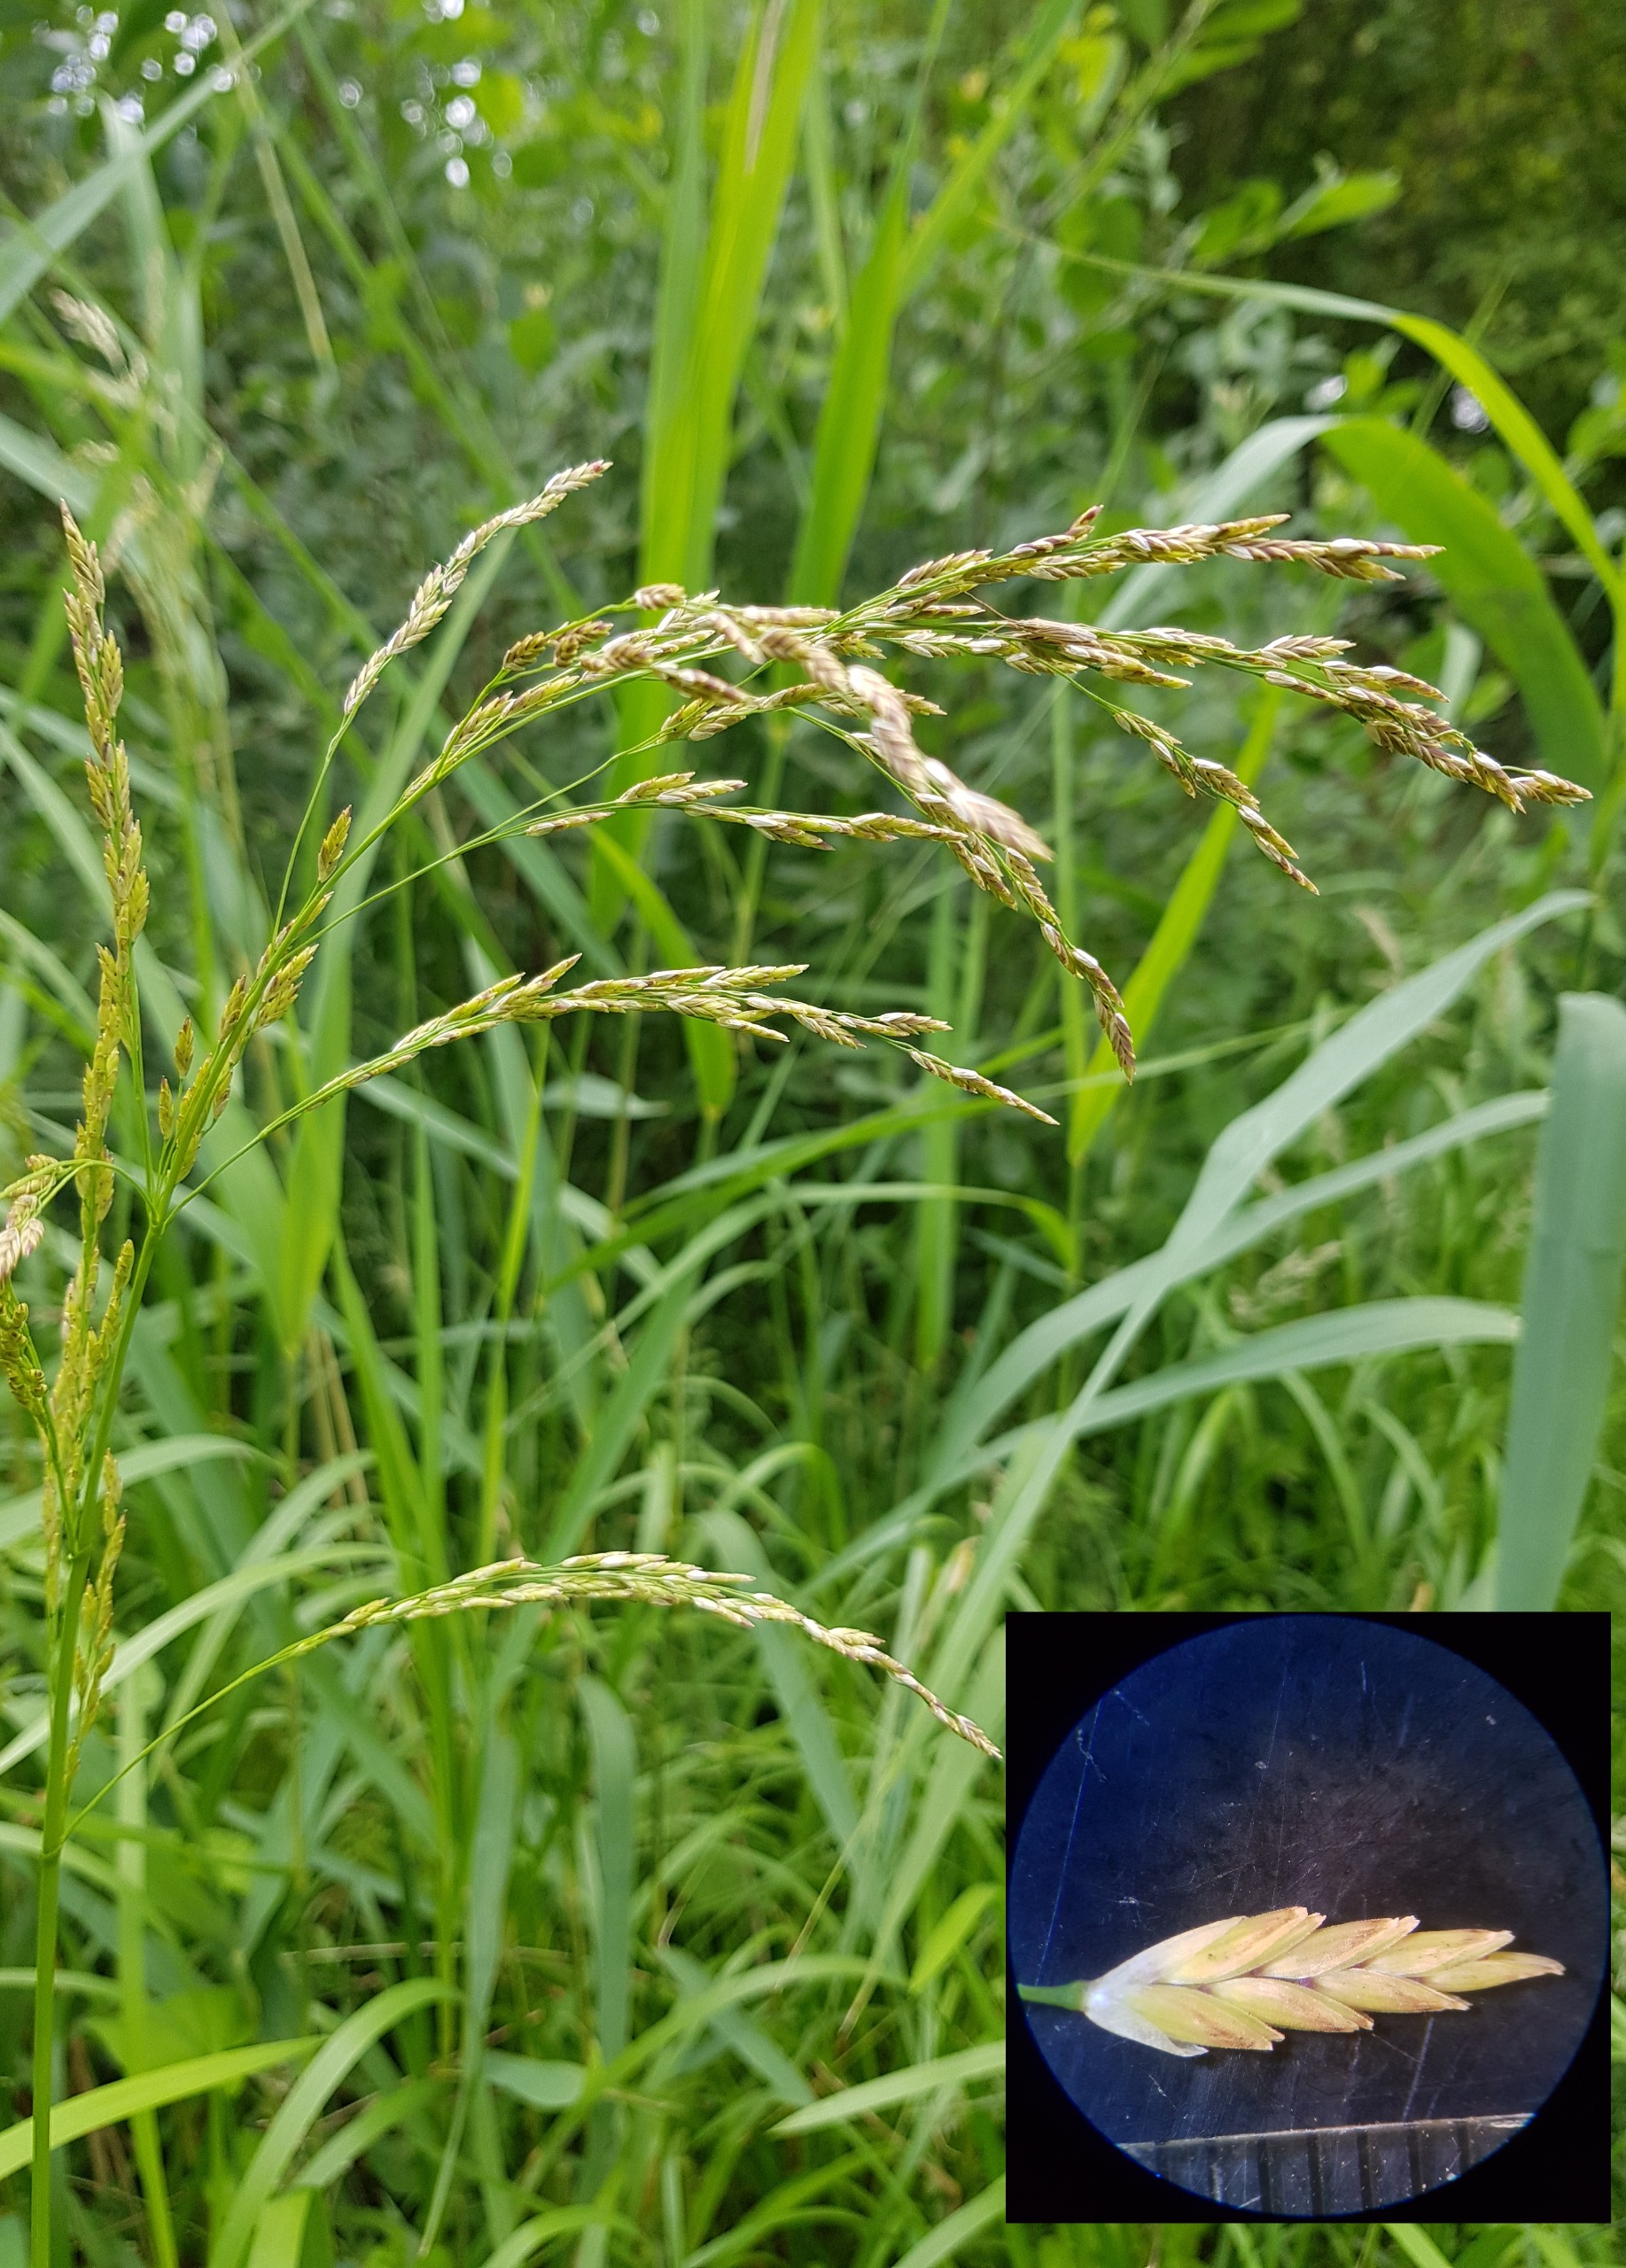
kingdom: Plantae
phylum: Tracheophyta
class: Liliopsida
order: Poales
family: Poaceae
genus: Glyceria
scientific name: Glyceria maxima
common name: Høj sødgræs
